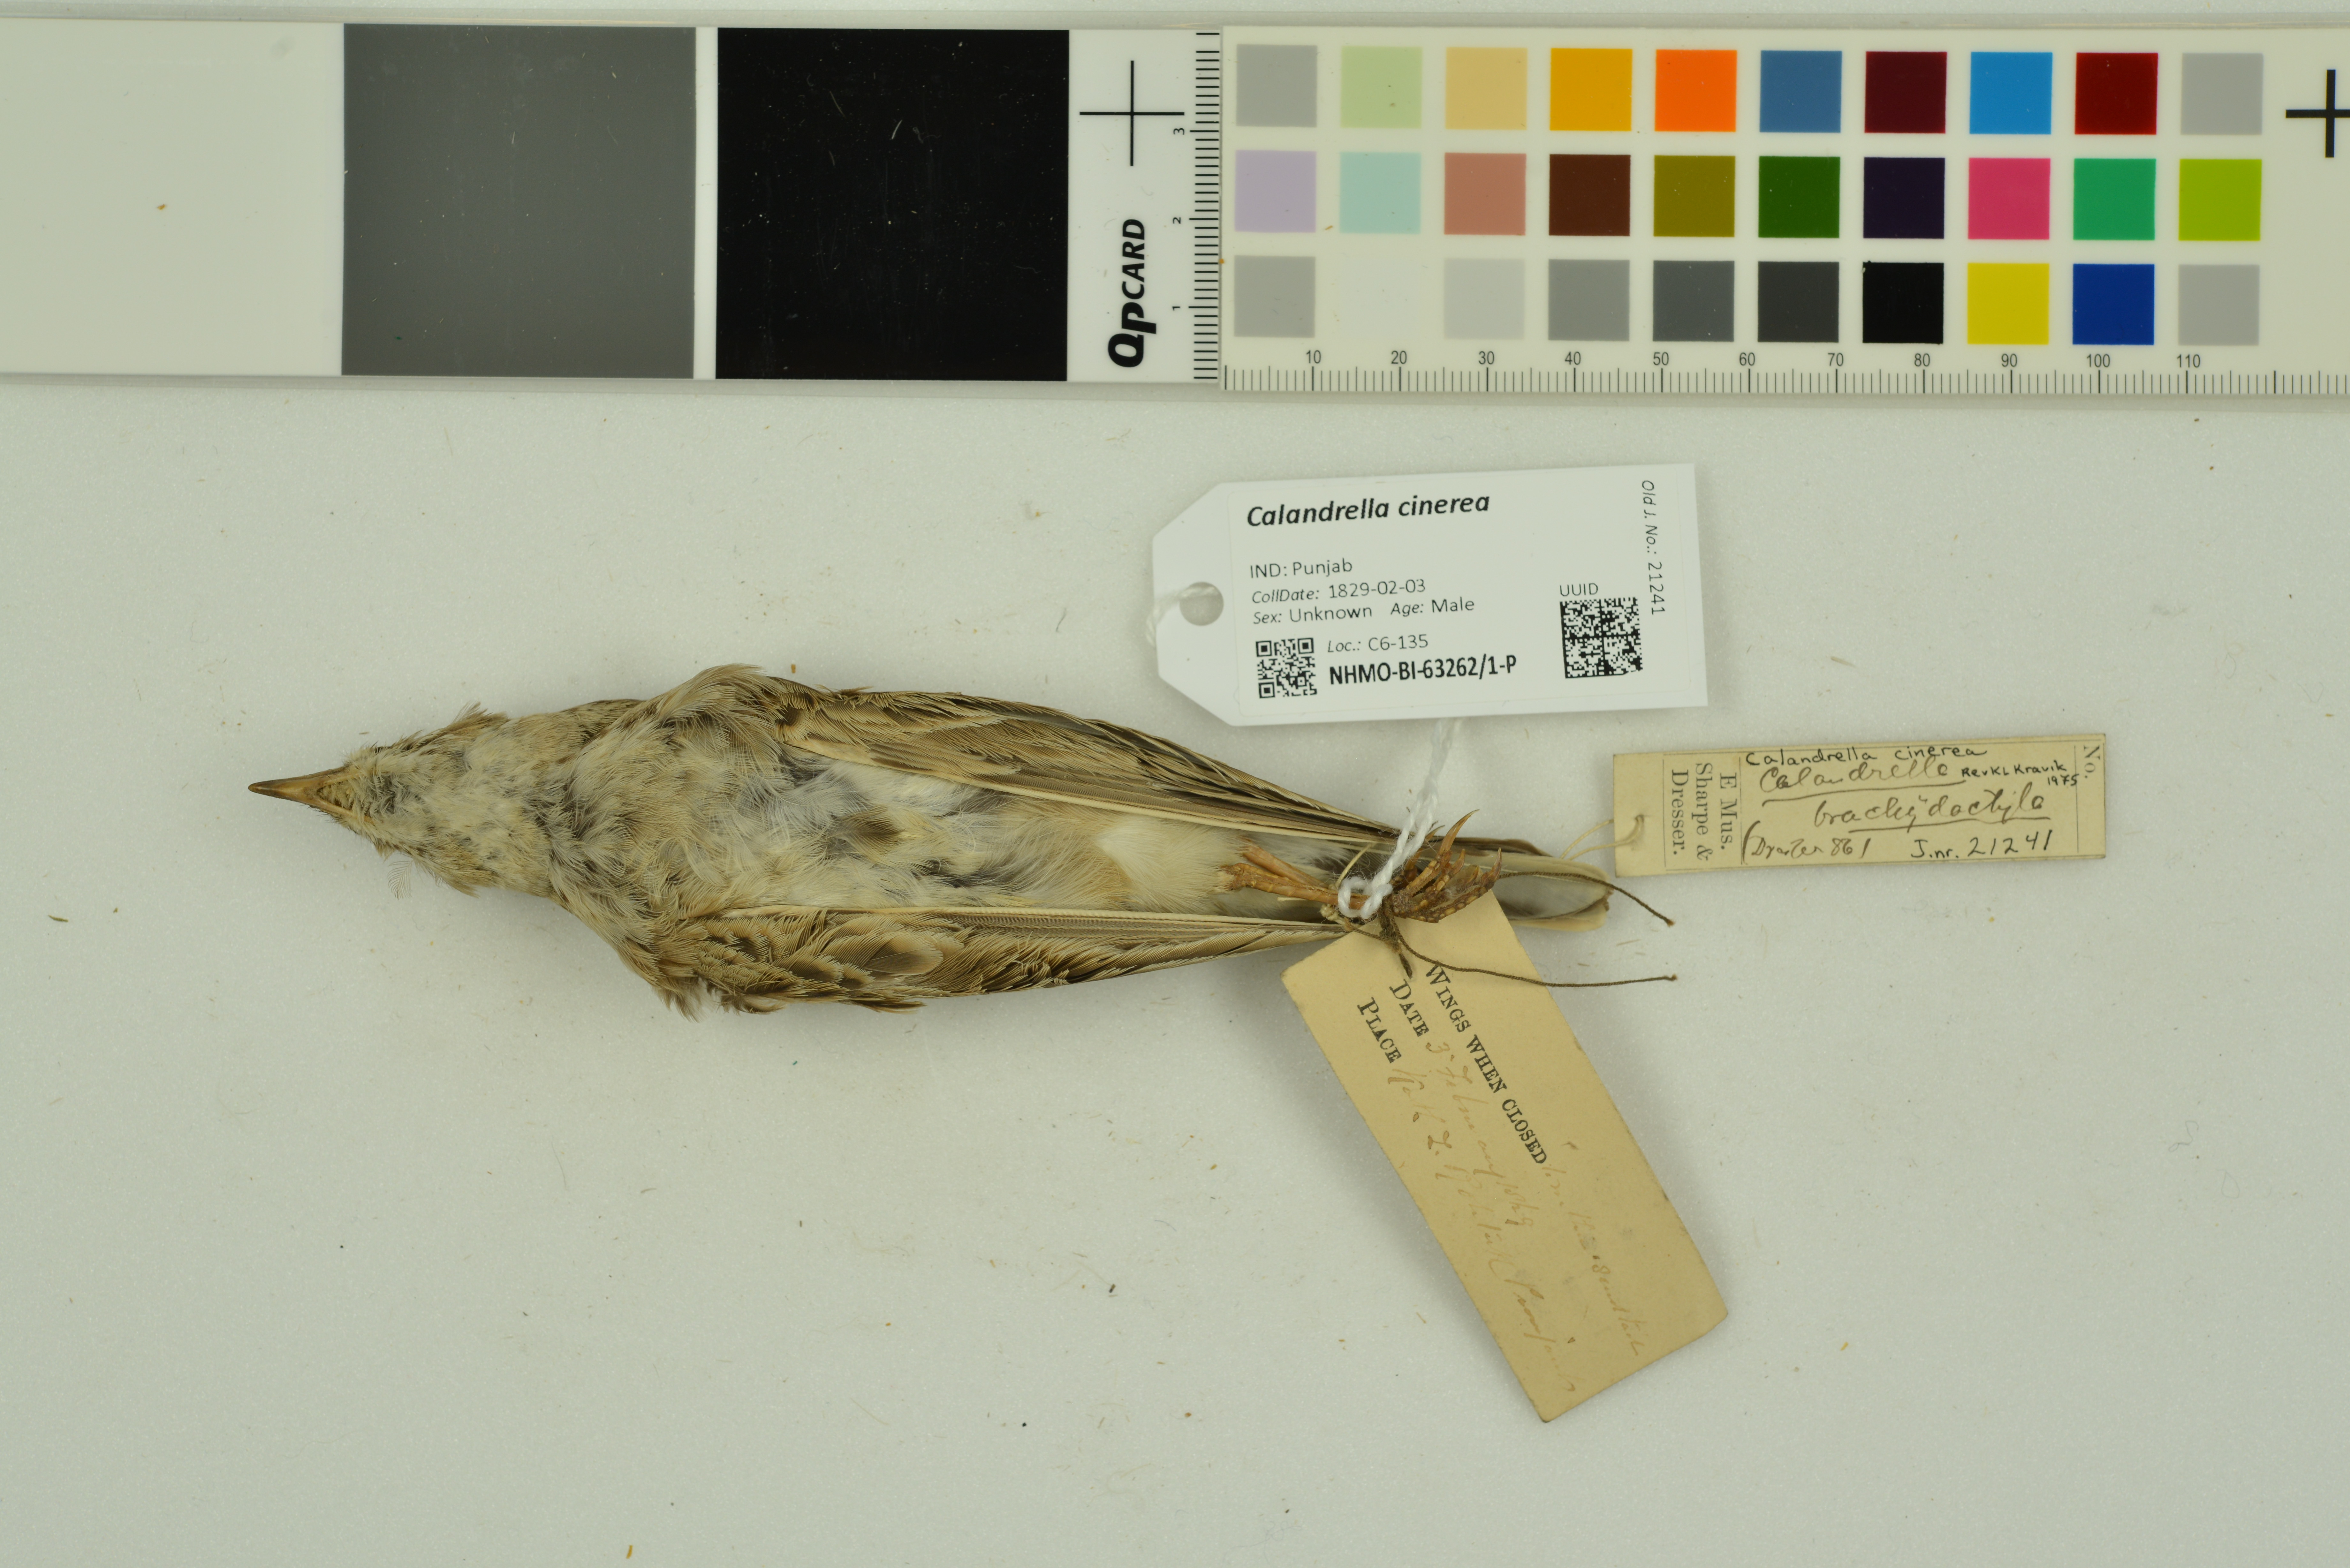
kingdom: Animalia
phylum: Chordata
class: Aves
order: Passeriformes
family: Alaudidae
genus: Calandrella
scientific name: Calandrella cinerea
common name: Red-capped lark
